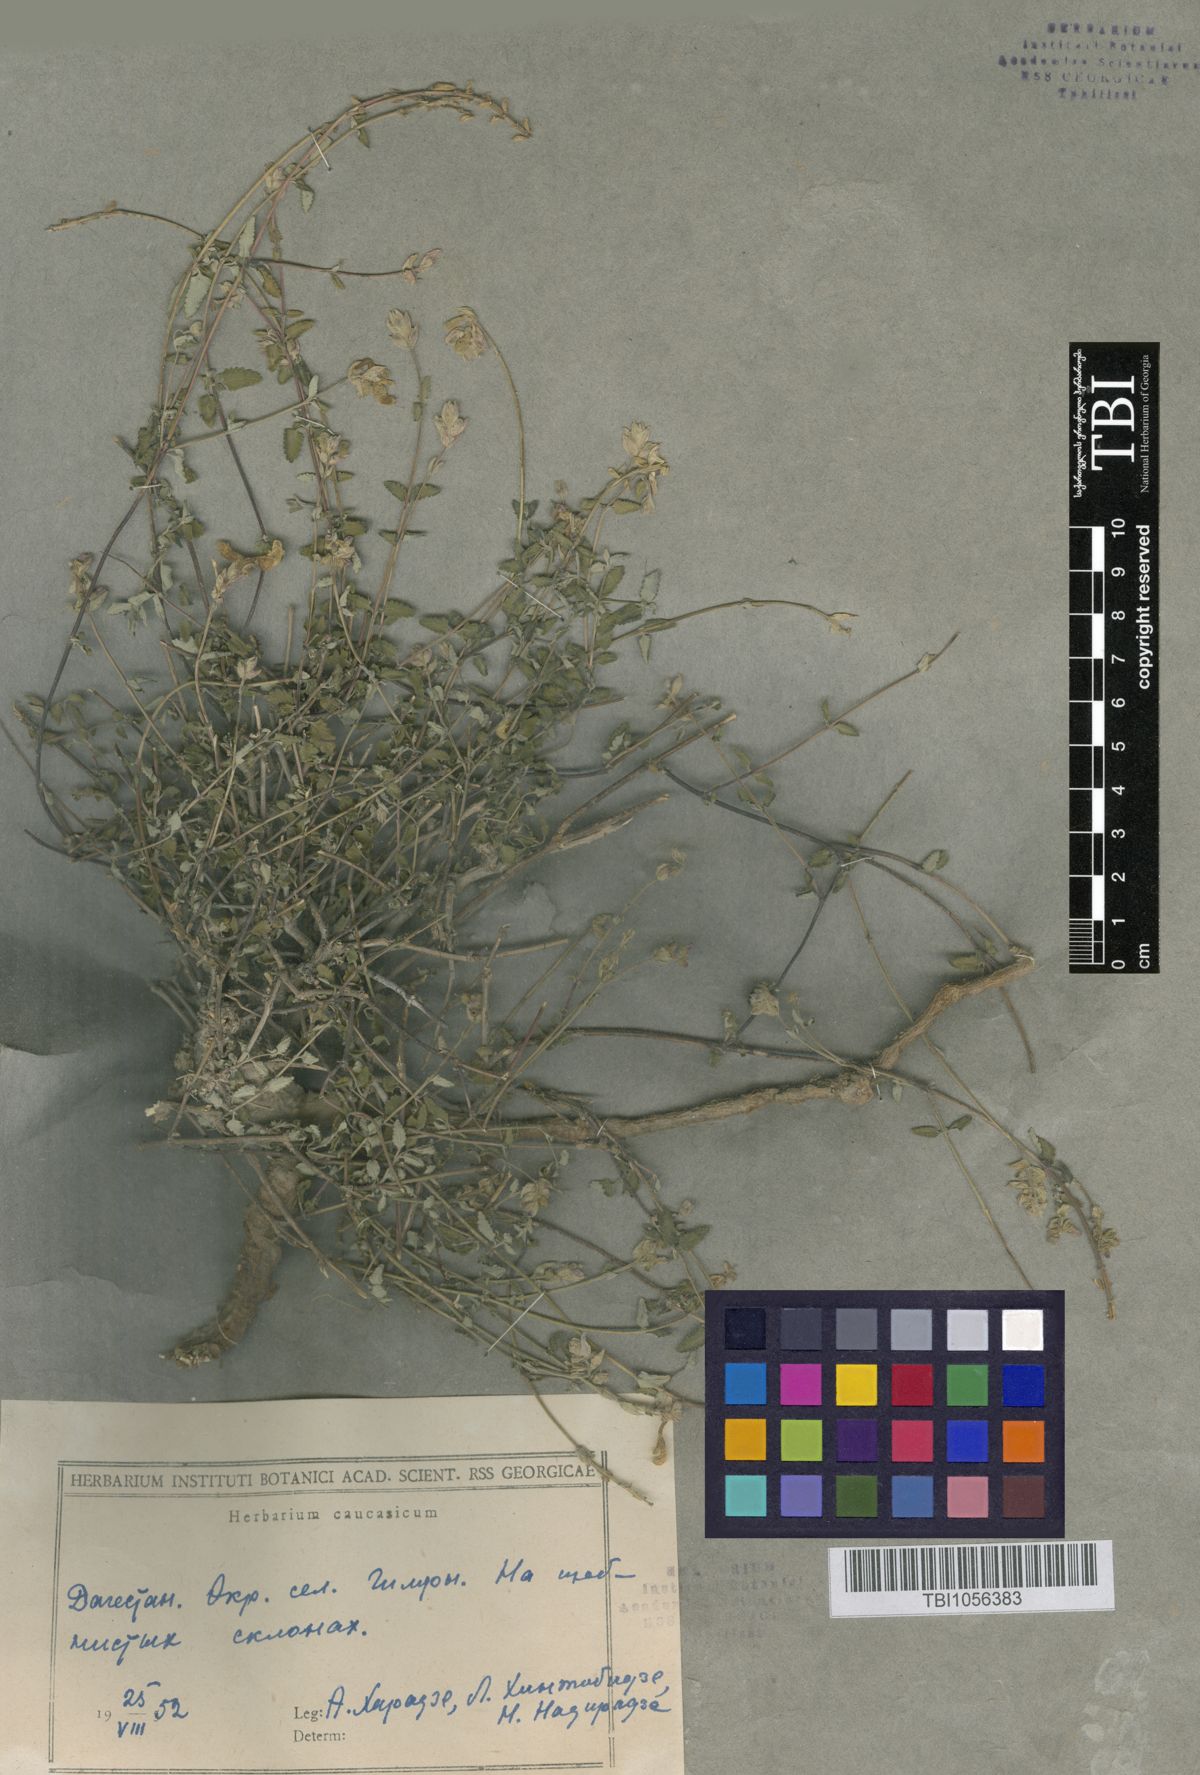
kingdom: Plantae
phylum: Tracheophyta
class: Magnoliopsida
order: Lamiales
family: Lamiaceae
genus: Scutellaria
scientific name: Scutellaria granulosa
